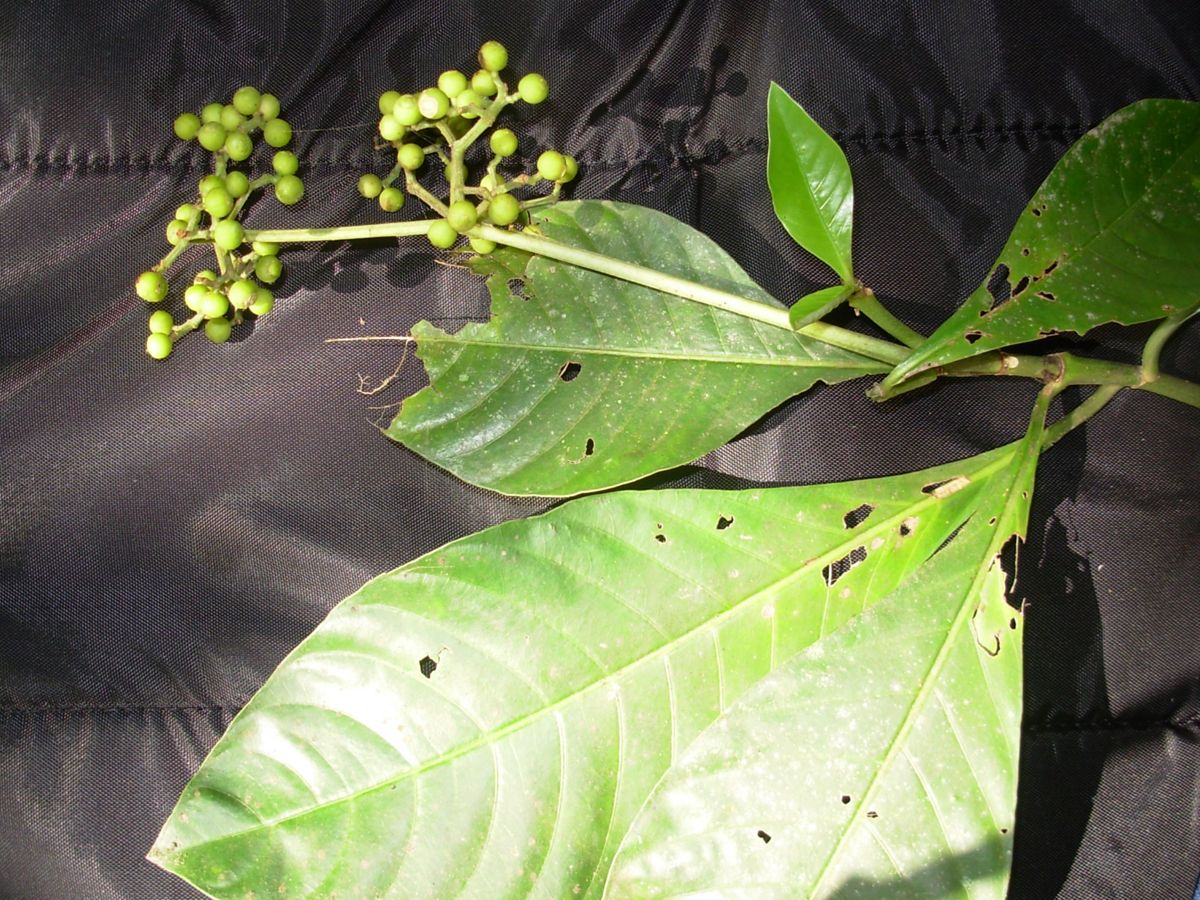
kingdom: Plantae
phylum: Tracheophyta
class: Magnoliopsida
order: Gentianales
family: Rubiaceae
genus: Psychotria
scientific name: Psychotria costivenia
